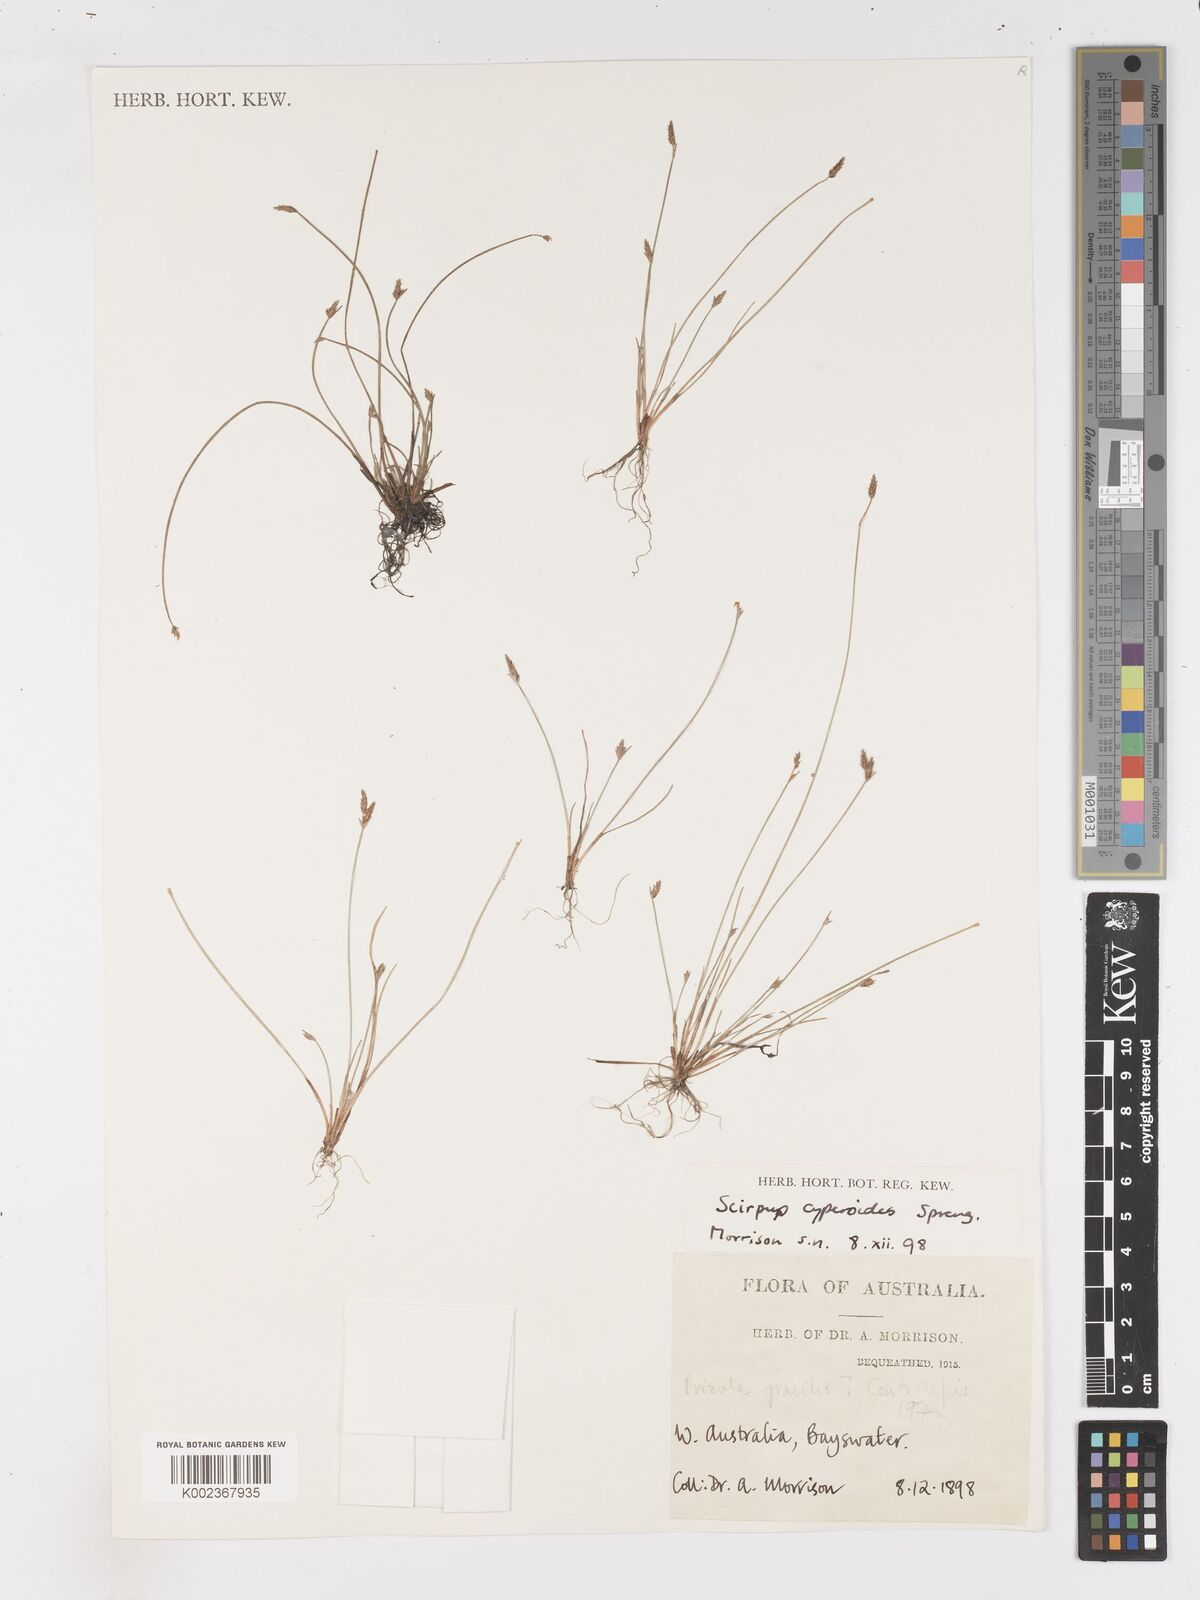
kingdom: Plantae
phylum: Tracheophyta
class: Liliopsida
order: Poales
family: Cyperaceae
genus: Isolepis
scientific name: Isolepis cyperoides
